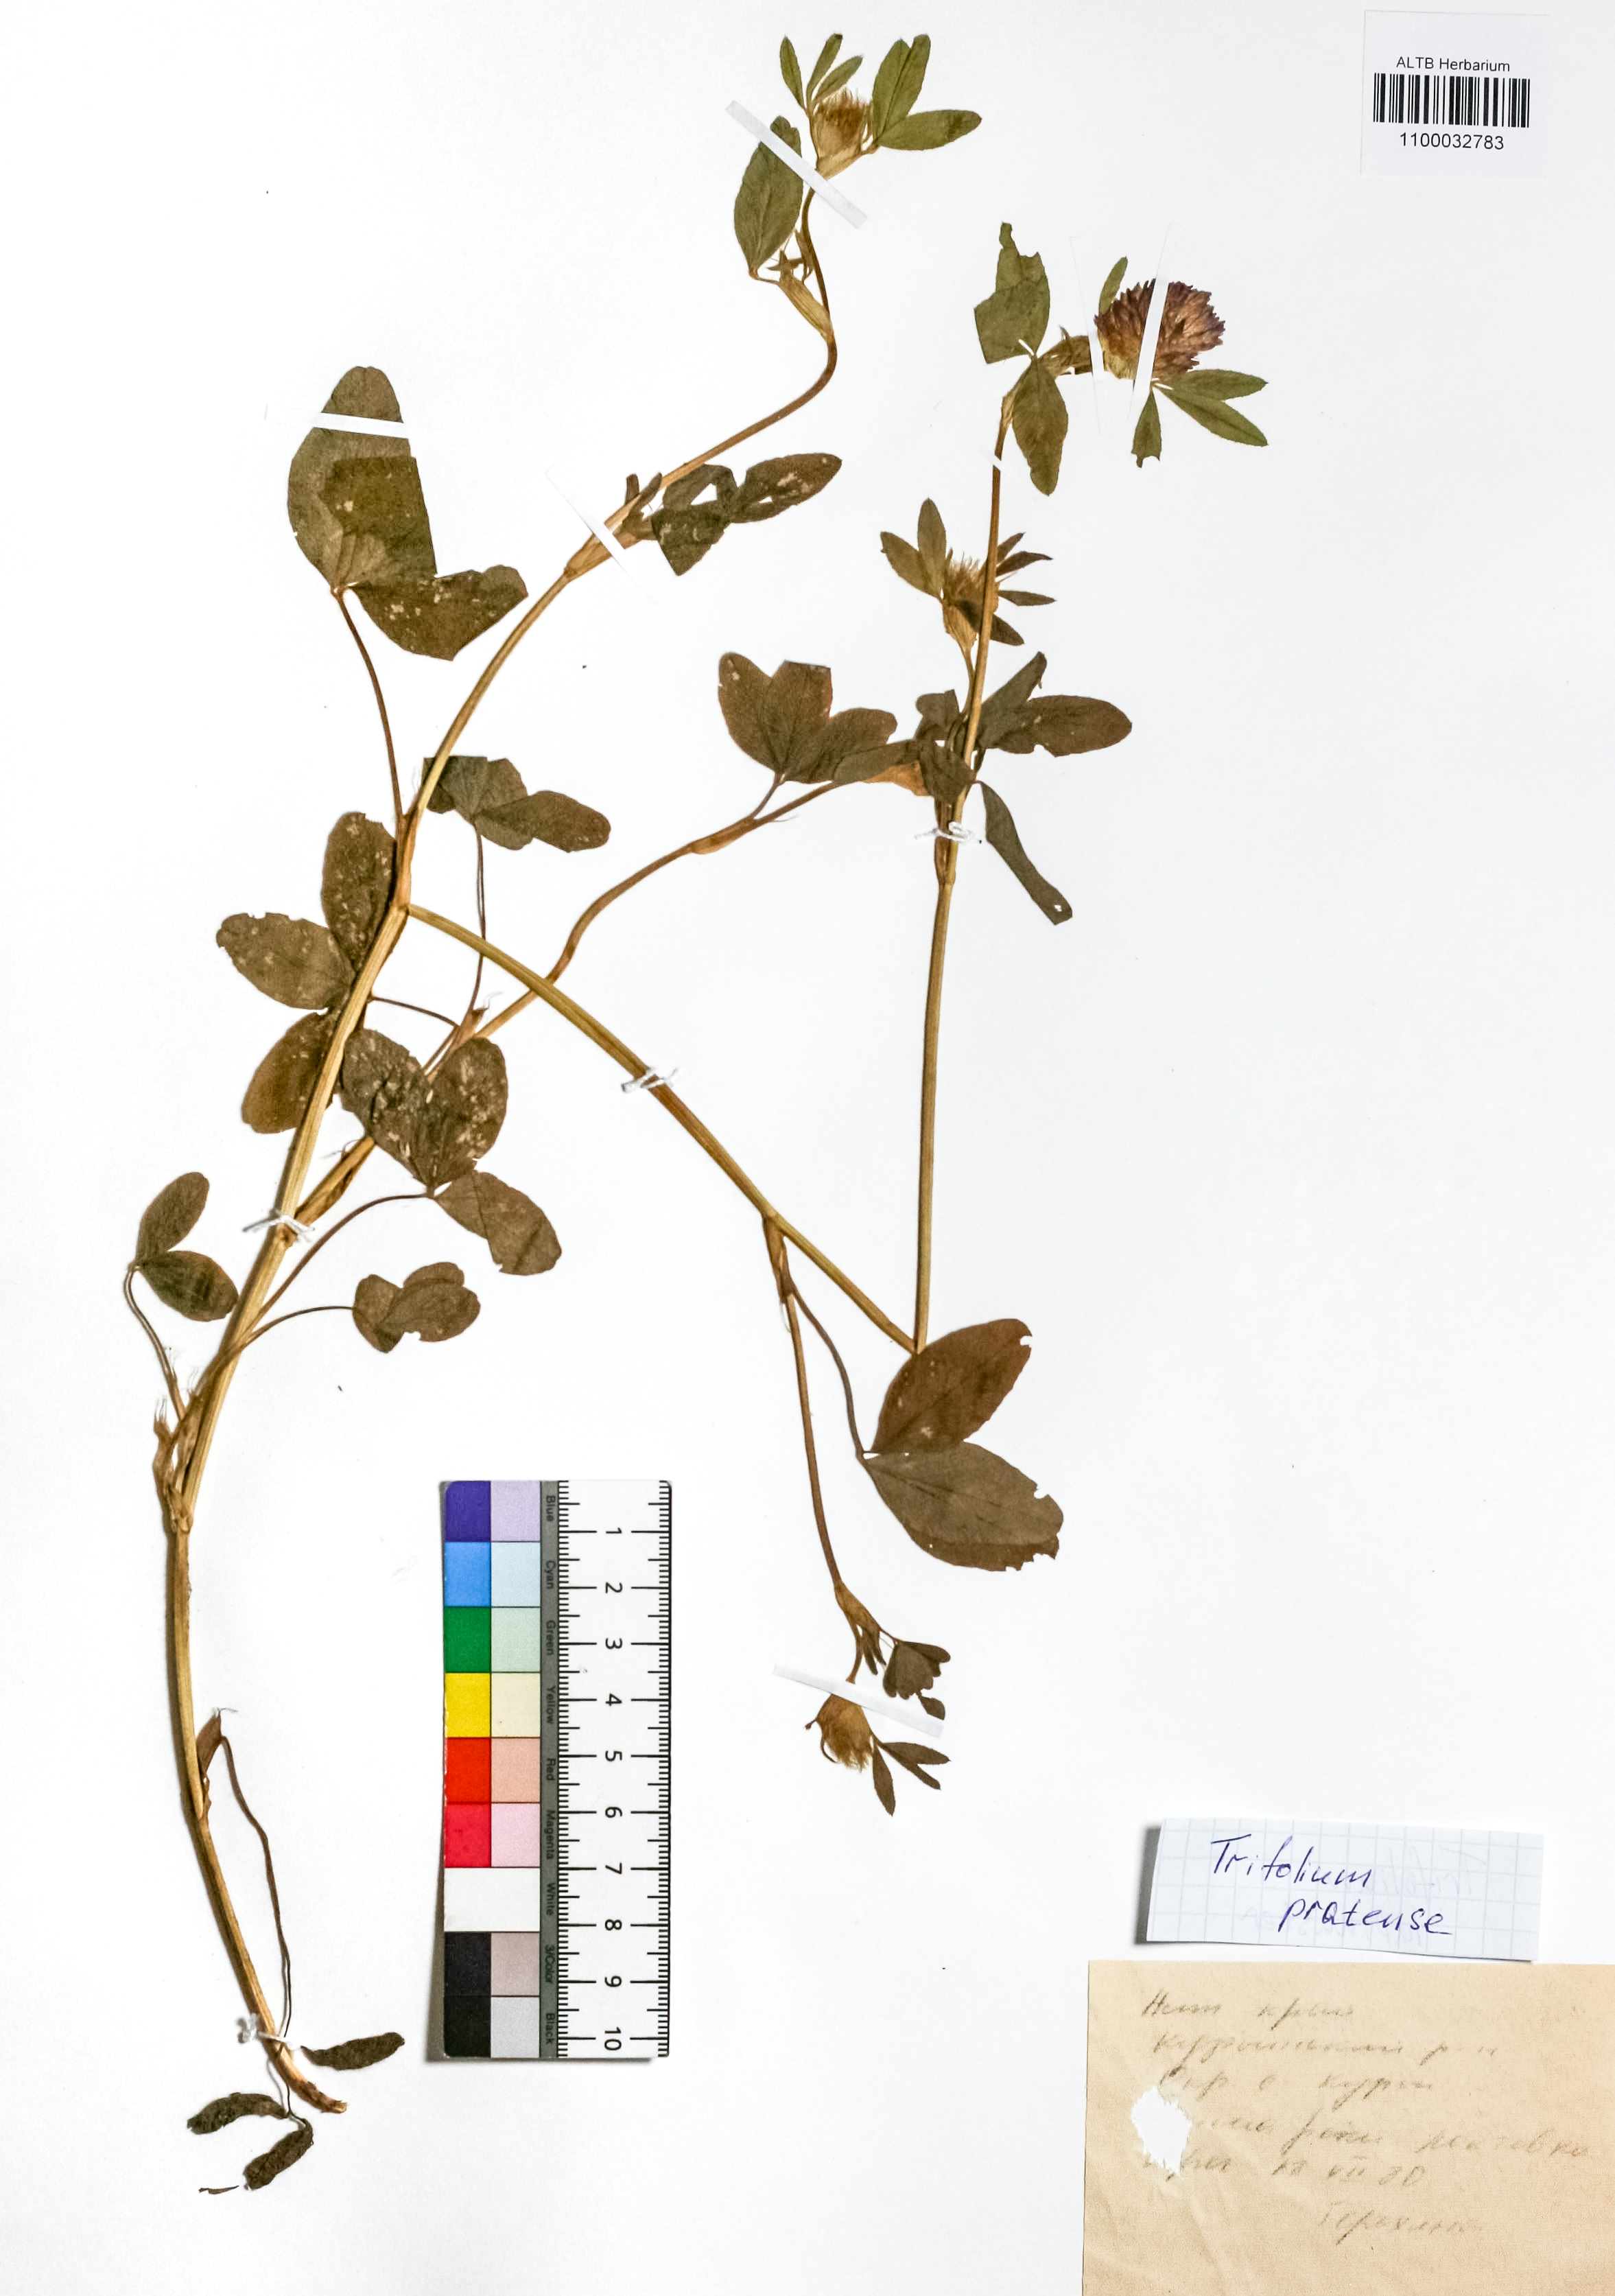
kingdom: Plantae
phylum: Tracheophyta
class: Magnoliopsida
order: Fabales
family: Fabaceae
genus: Trifolium
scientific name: Trifolium pratense
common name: Red clover
